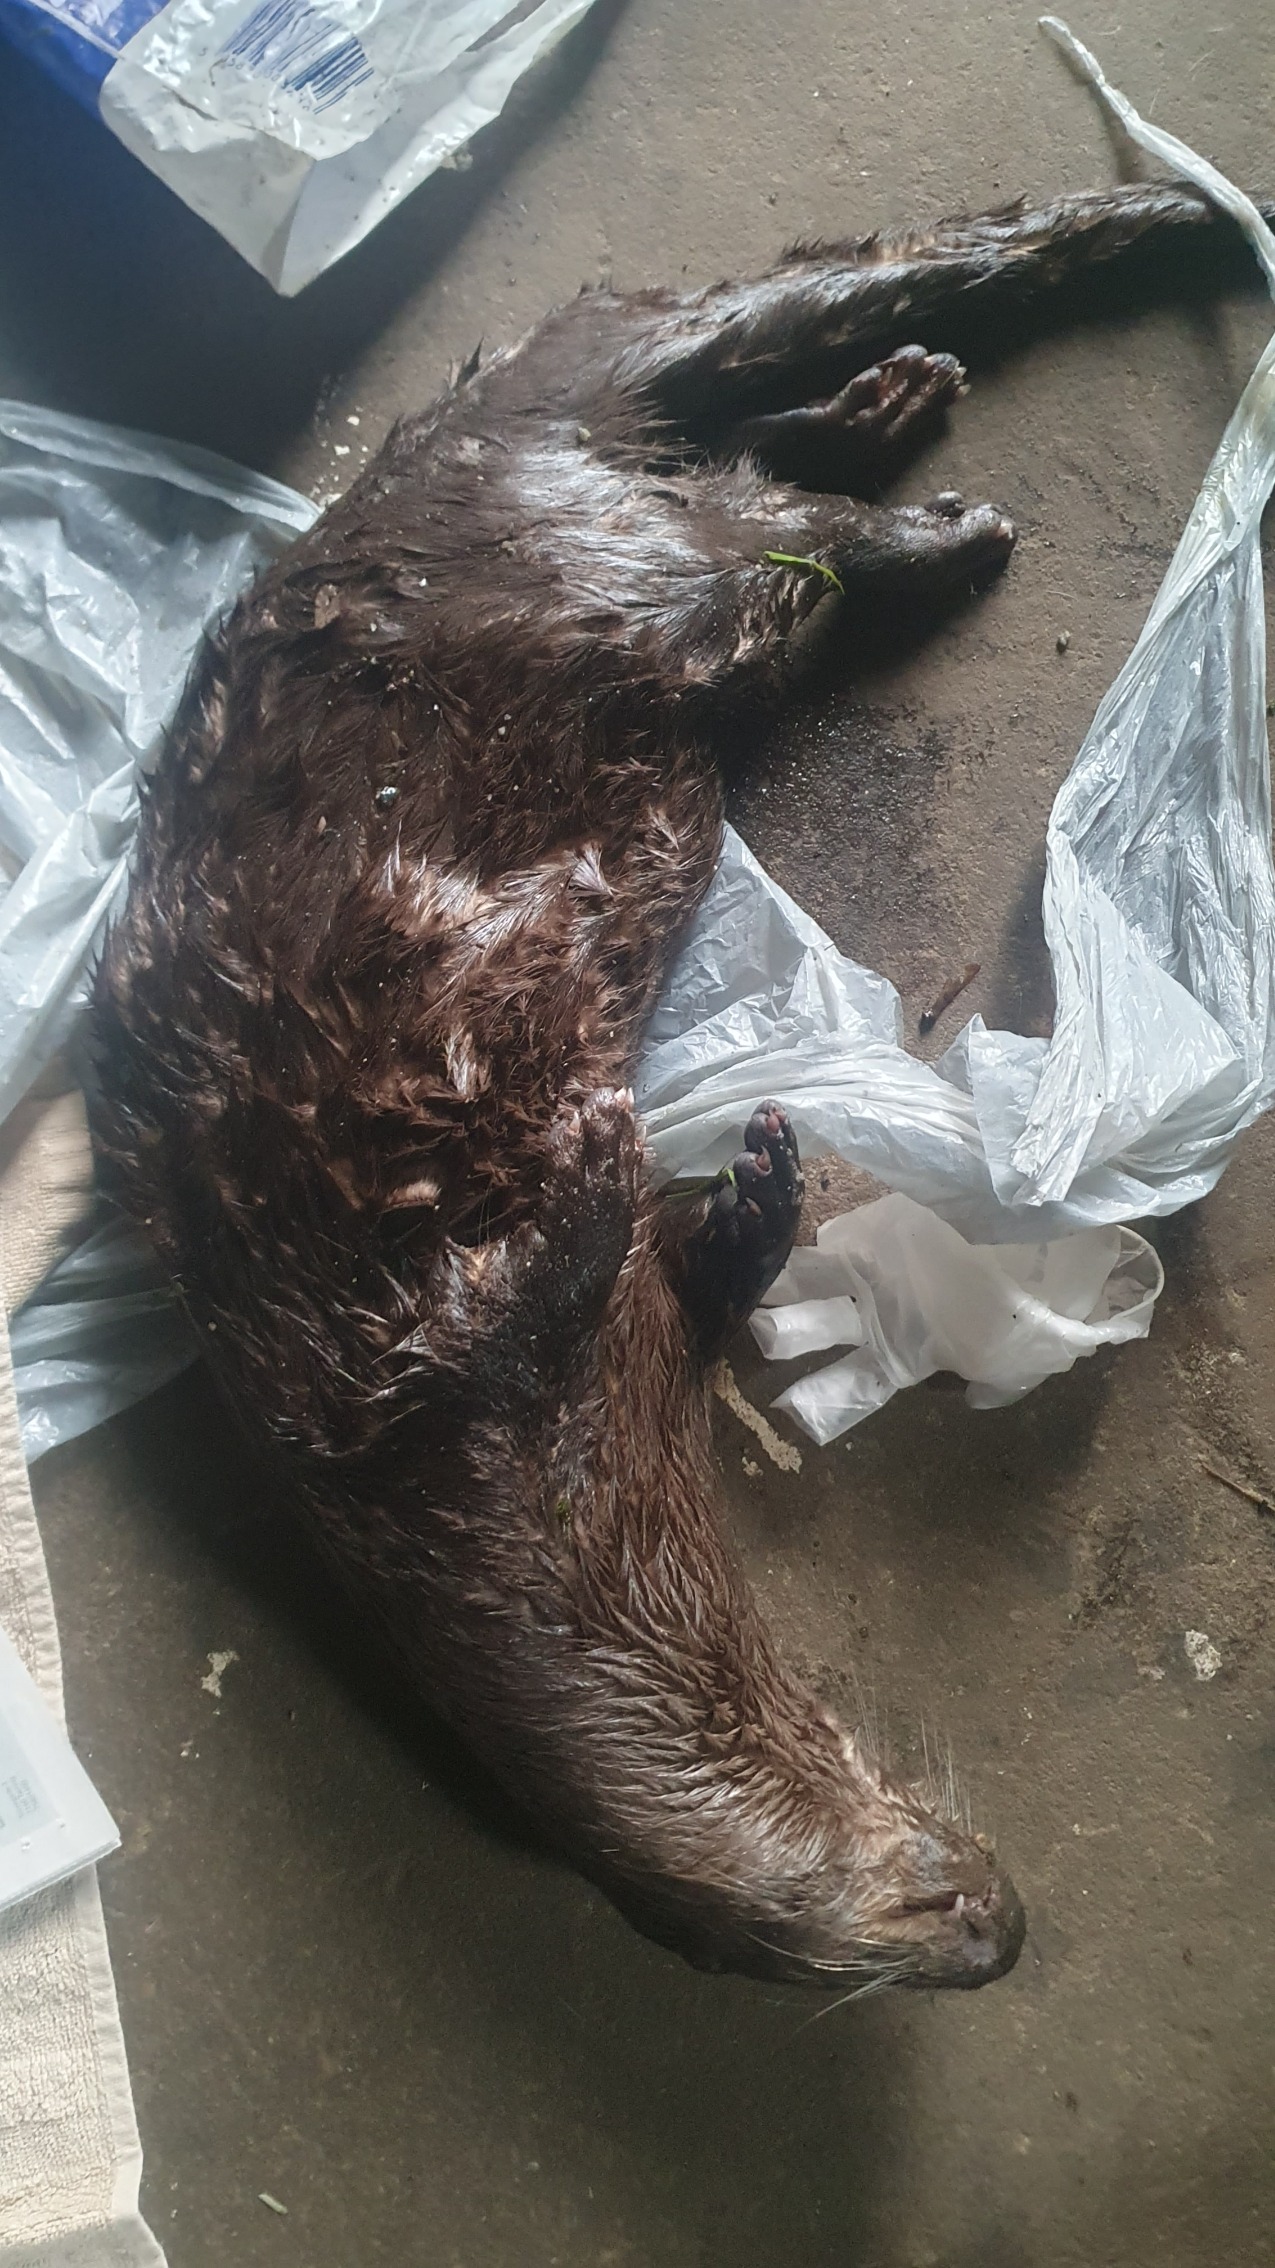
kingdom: Animalia
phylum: Chordata
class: Mammalia
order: Carnivora
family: Mustelidae
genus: Lutra
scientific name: Lutra lutra
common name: Odder
